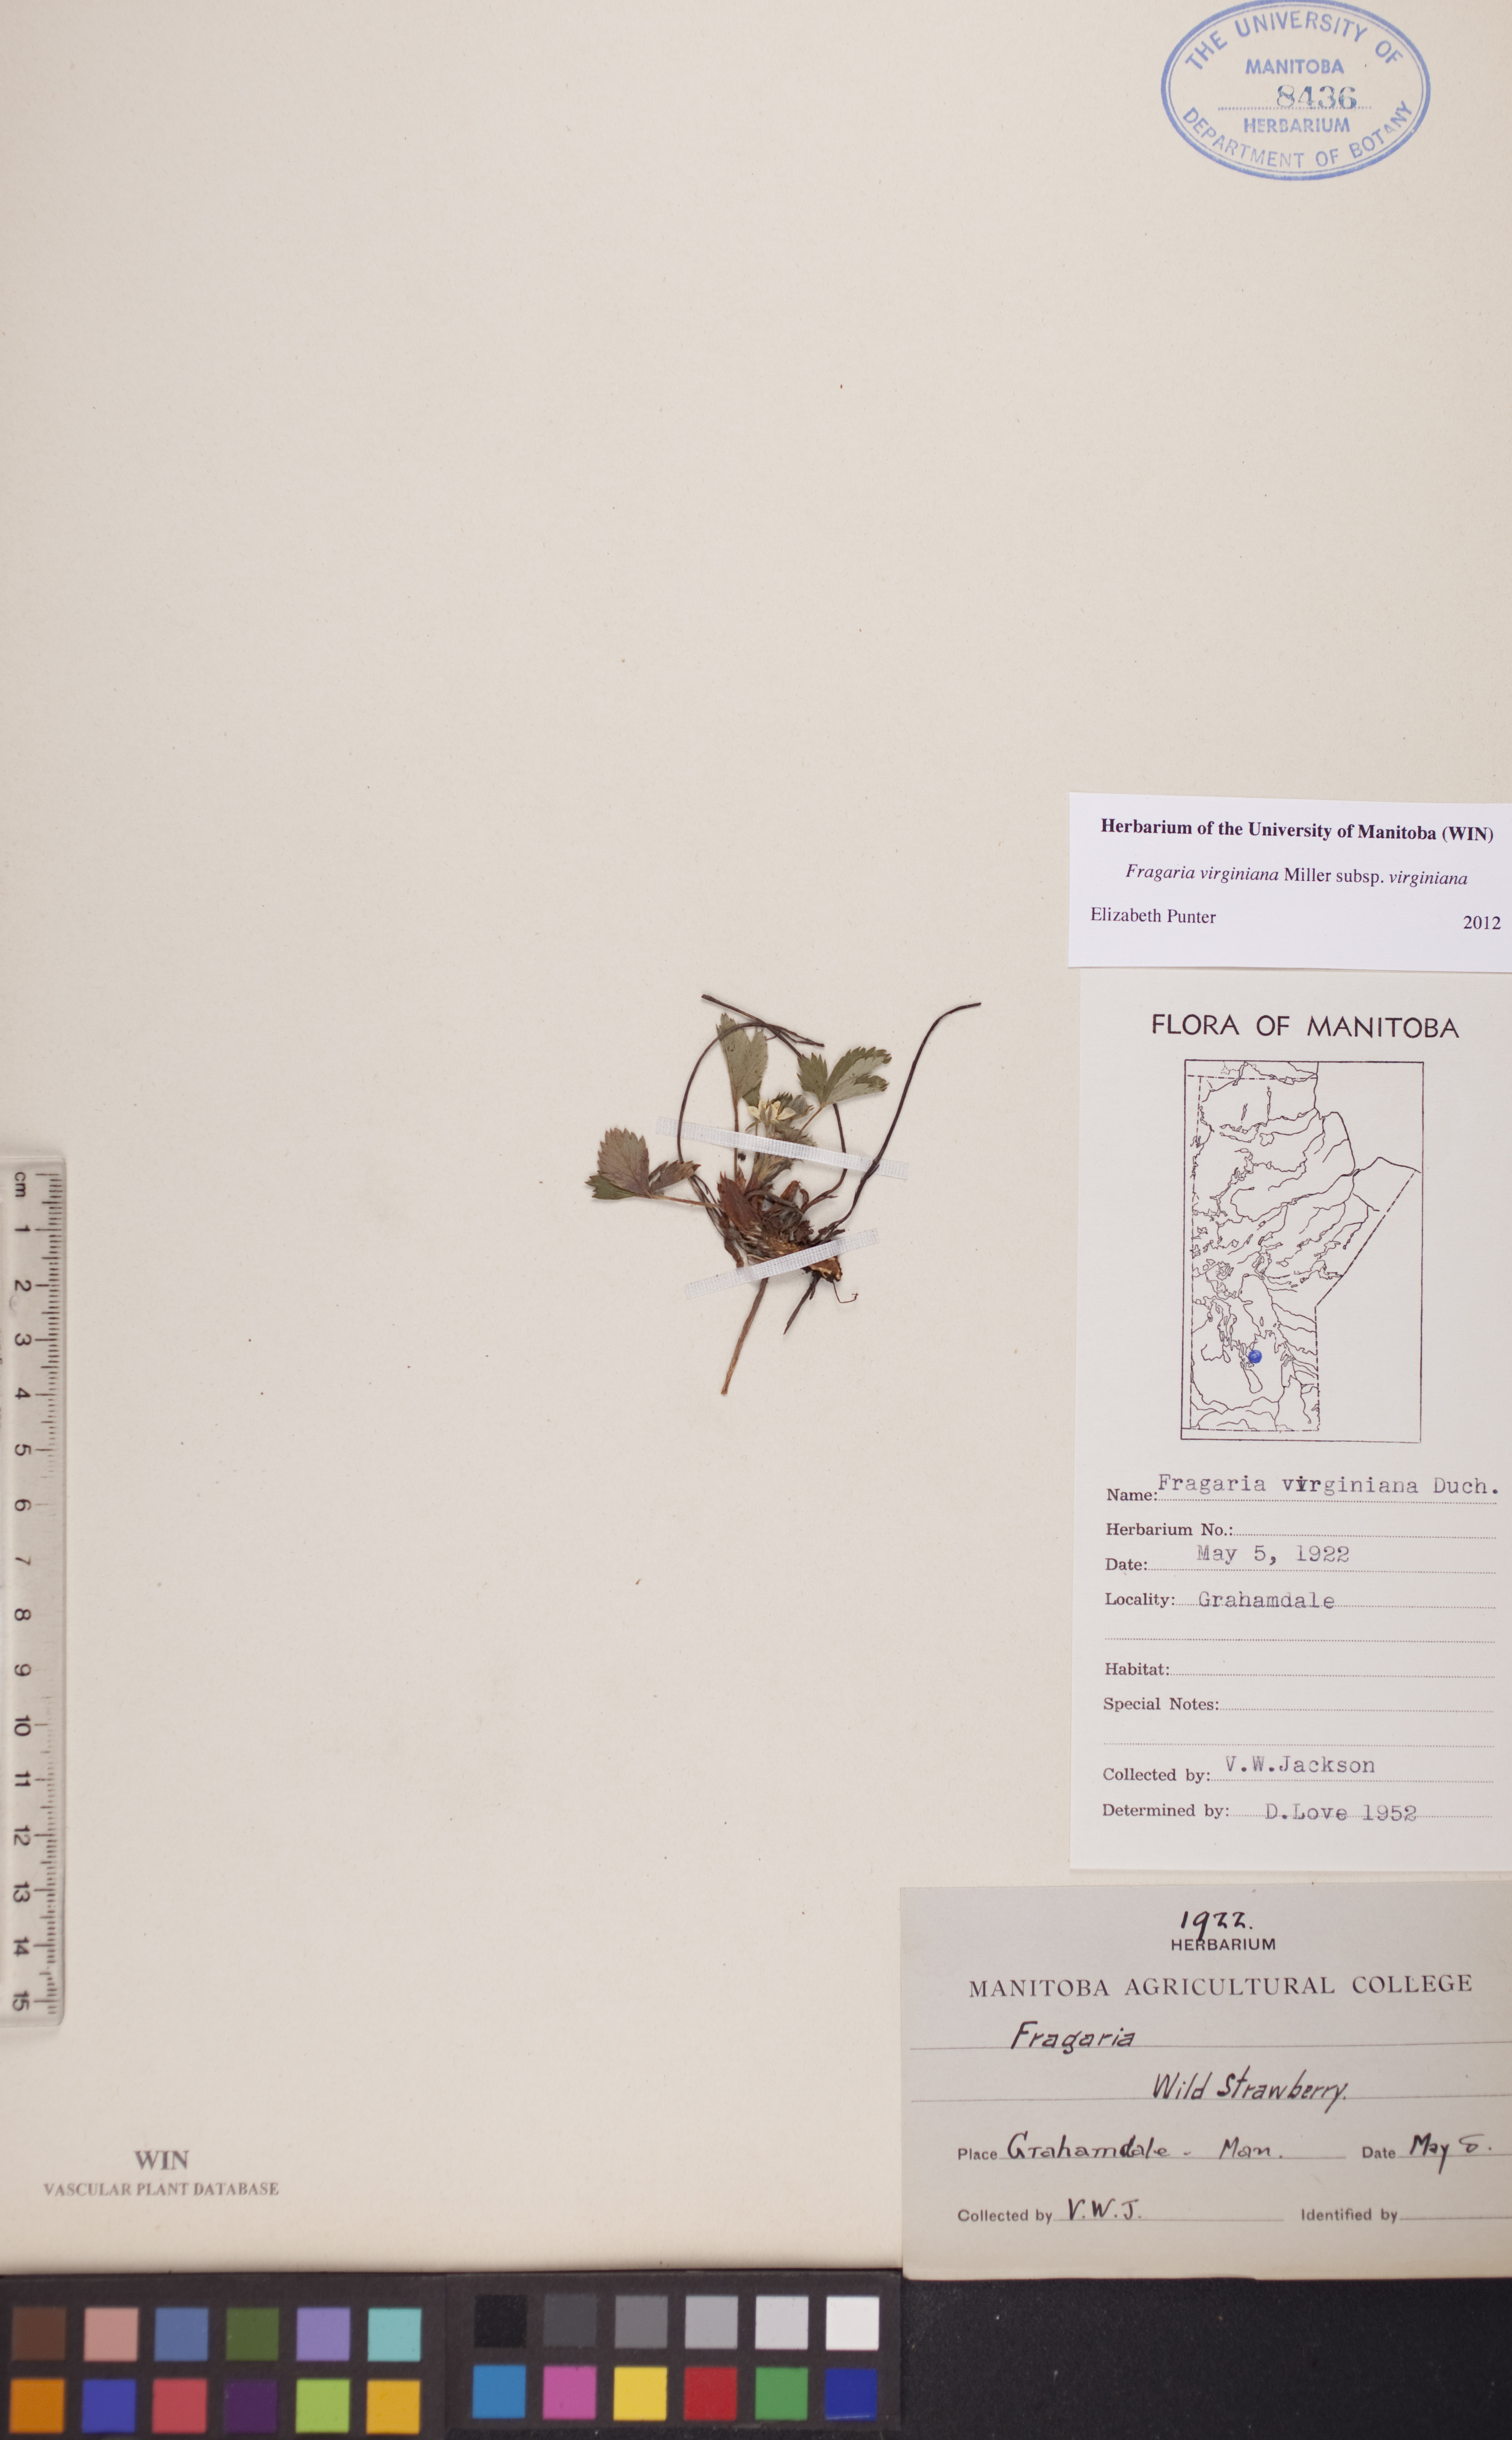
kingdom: Plantae
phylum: Tracheophyta
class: Magnoliopsida
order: Rosales
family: Rosaceae
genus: Fragaria
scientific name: Fragaria virginiana
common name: Thickleaved wild strawberry
